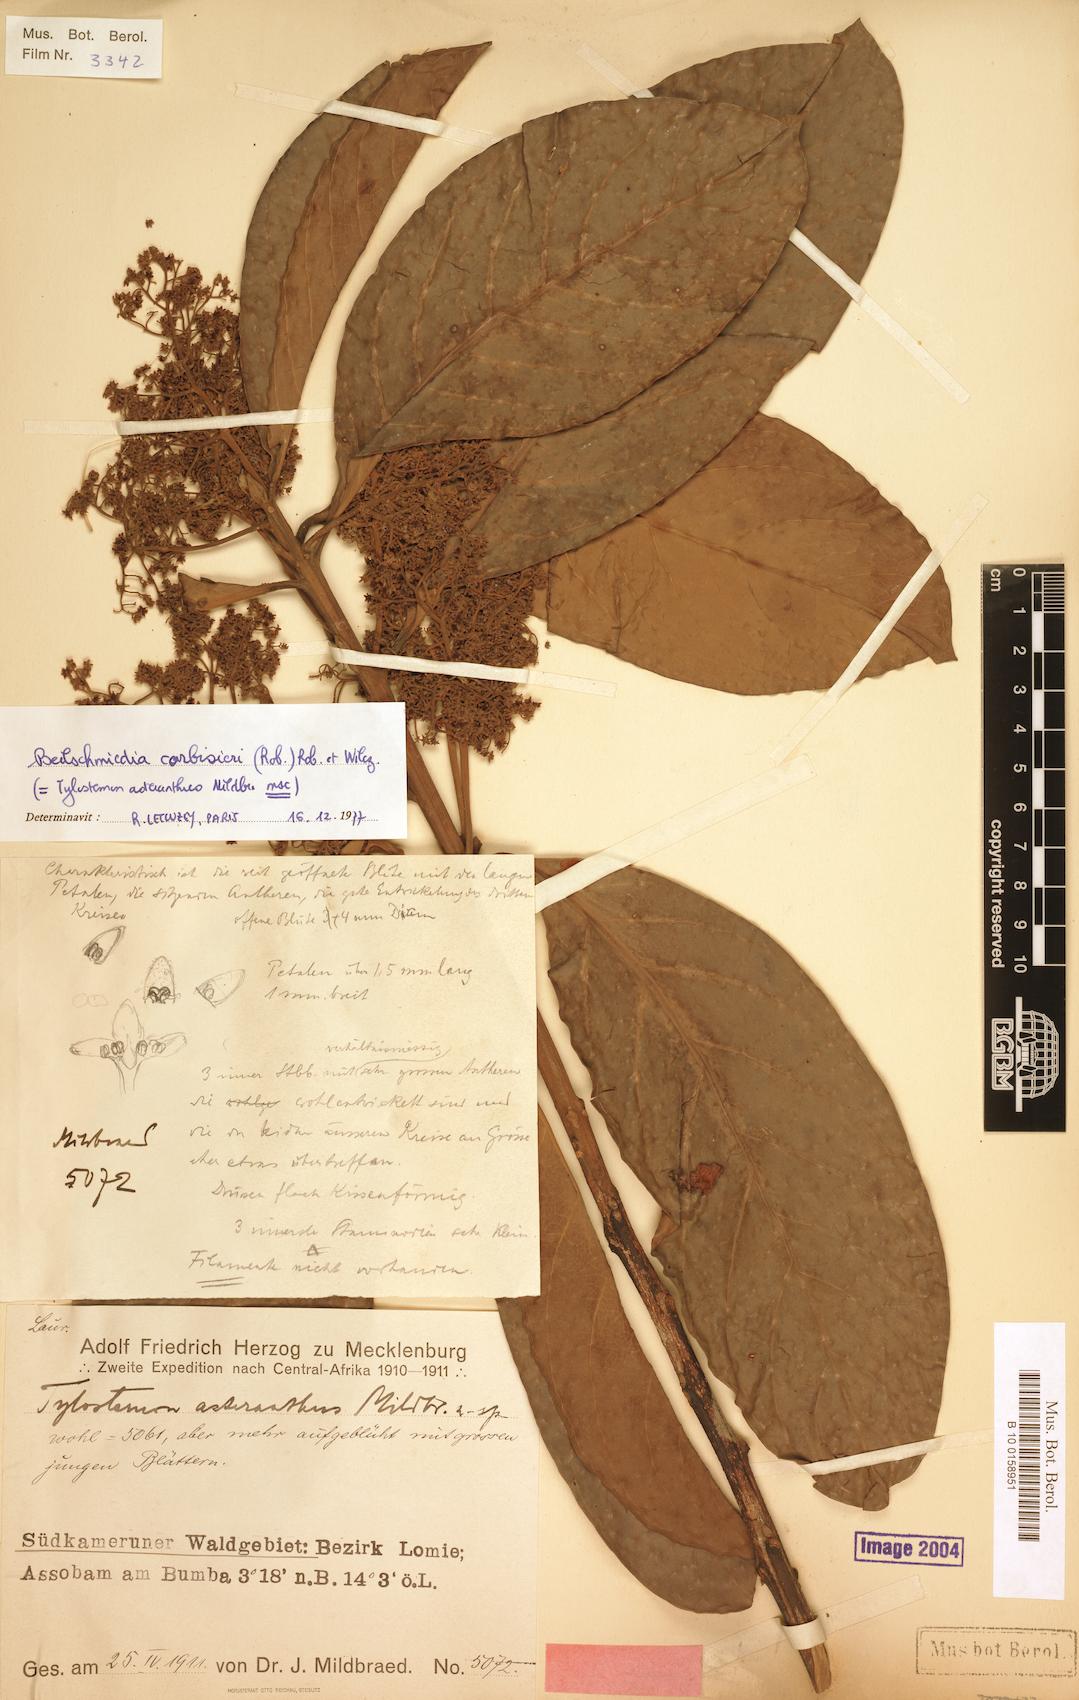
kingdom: Plantae
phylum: Tracheophyta
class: Magnoliopsida
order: Laurales
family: Lauraceae
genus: Beilschmiedia
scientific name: Beilschmiedia corbisieri
